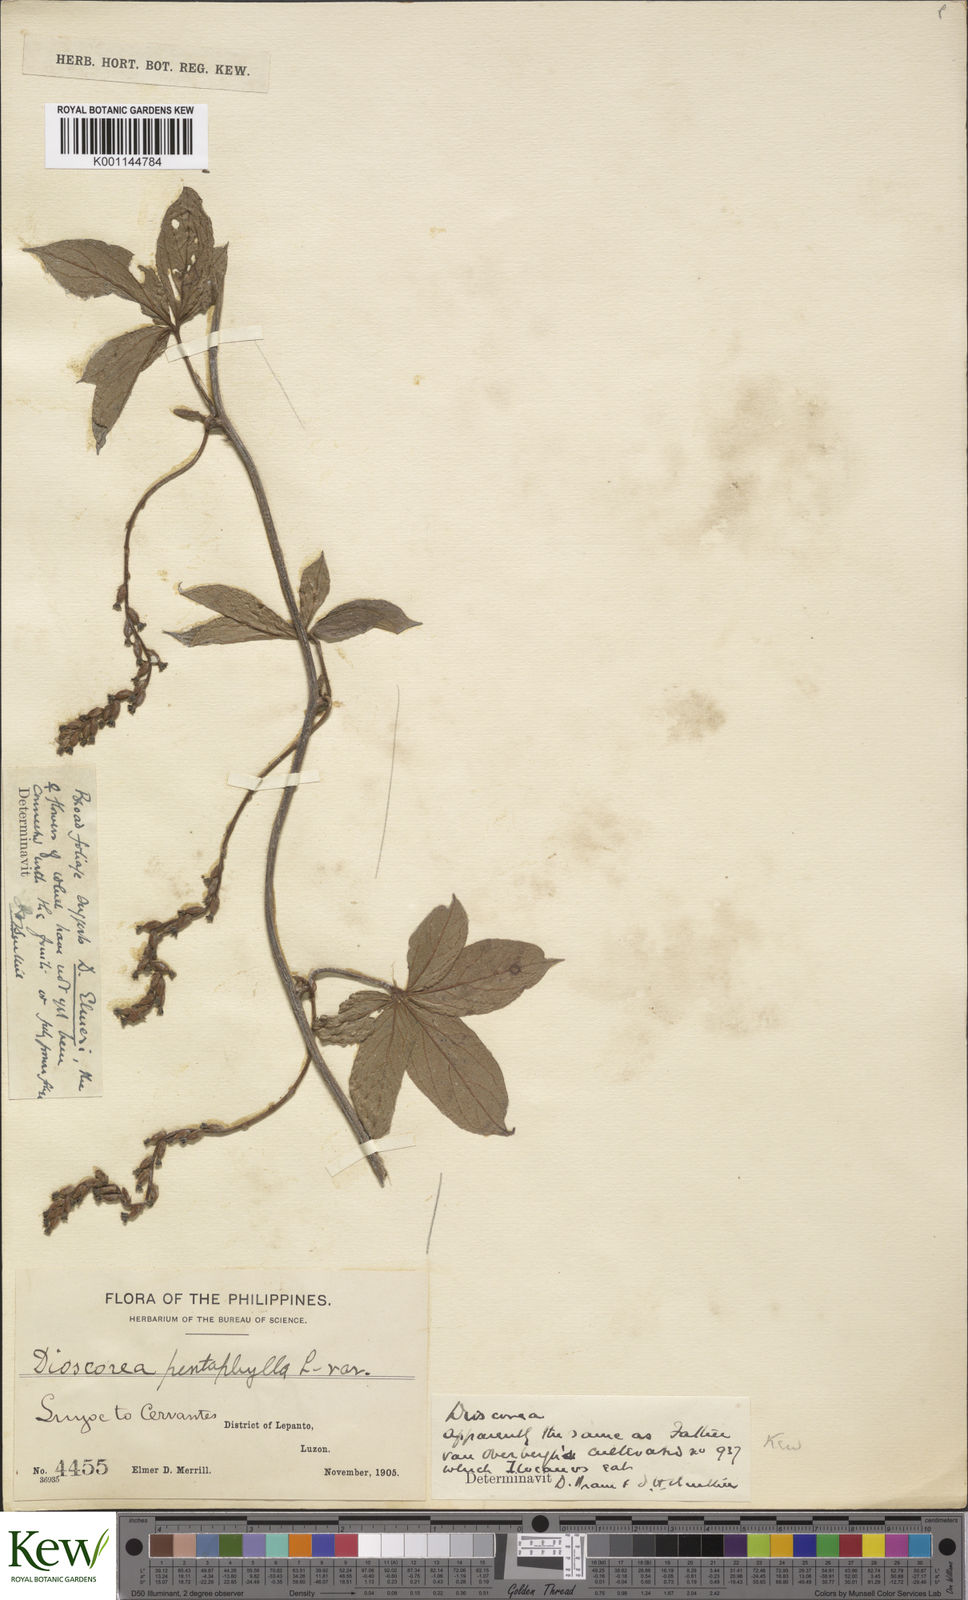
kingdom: Plantae
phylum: Tracheophyta
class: Liliopsida
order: Dioscoreales
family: Dioscoreaceae
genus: Dioscorea
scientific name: Dioscorea cumingii
